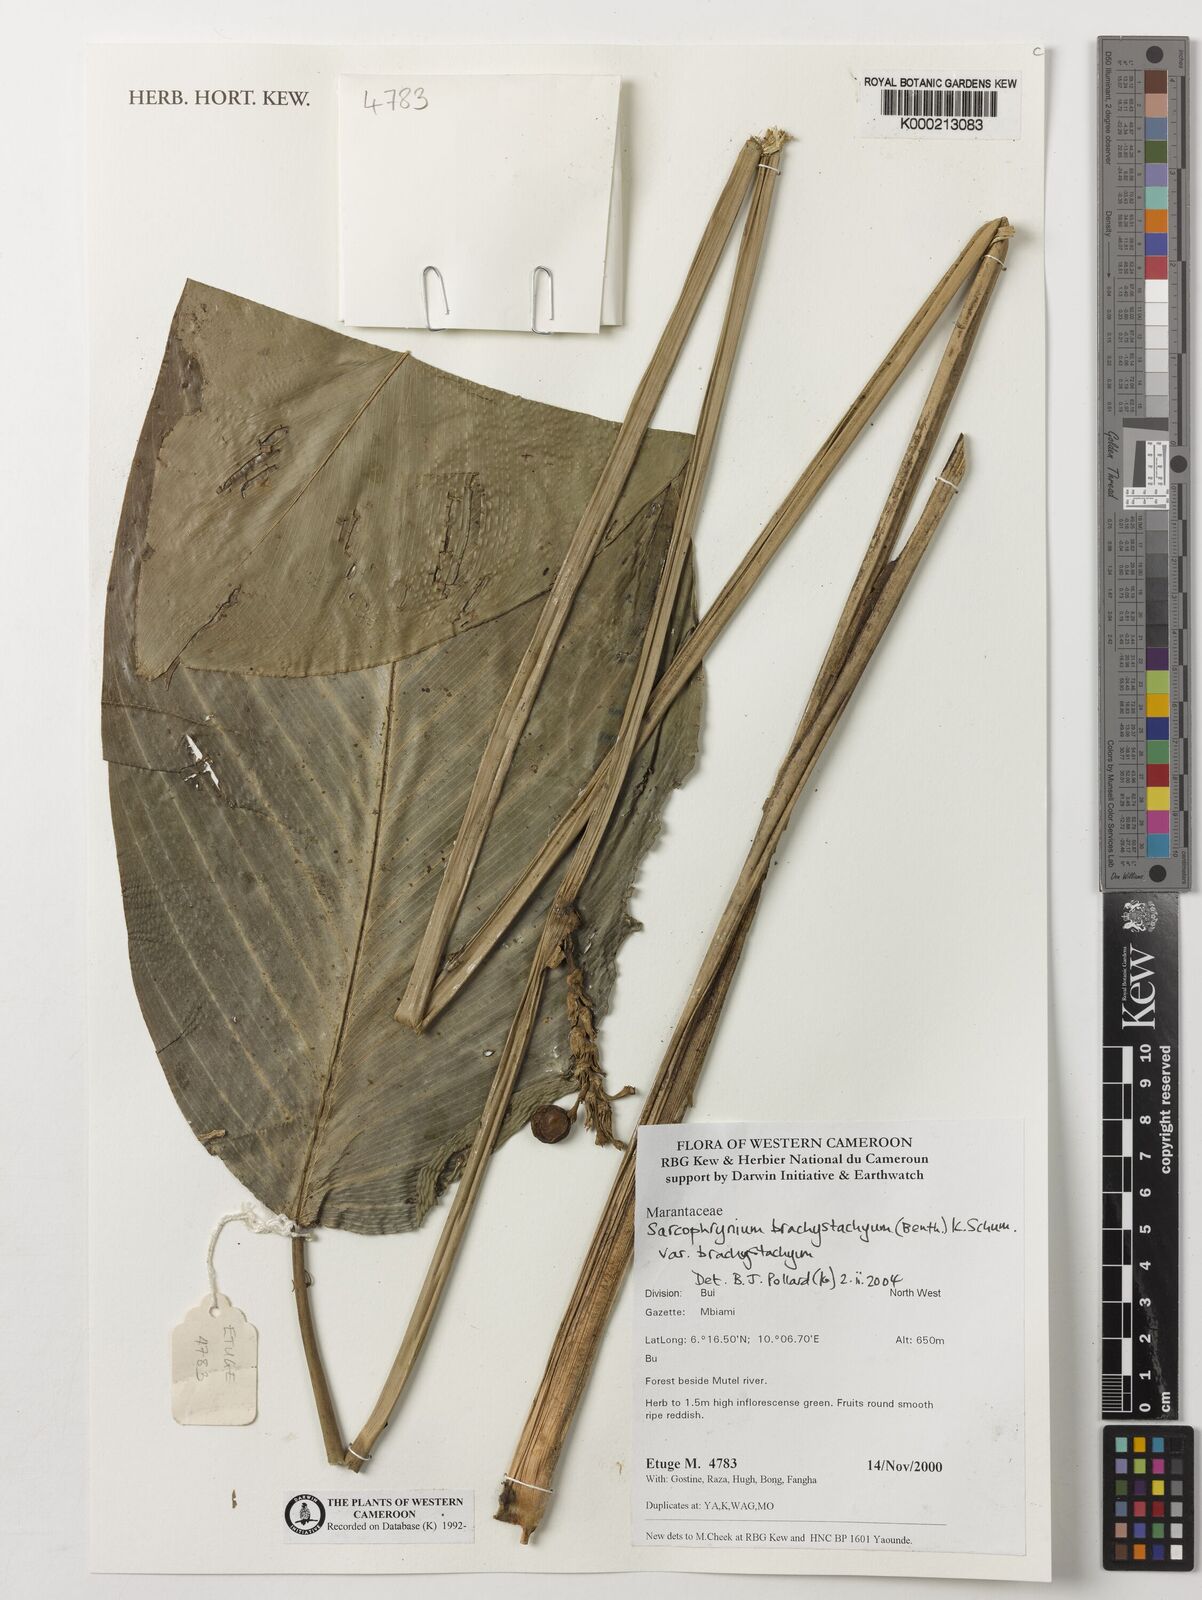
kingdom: Plantae
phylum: Tracheophyta
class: Liliopsida
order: Zingiberales
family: Marantaceae
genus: Sarcophrynium
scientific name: Sarcophrynium
